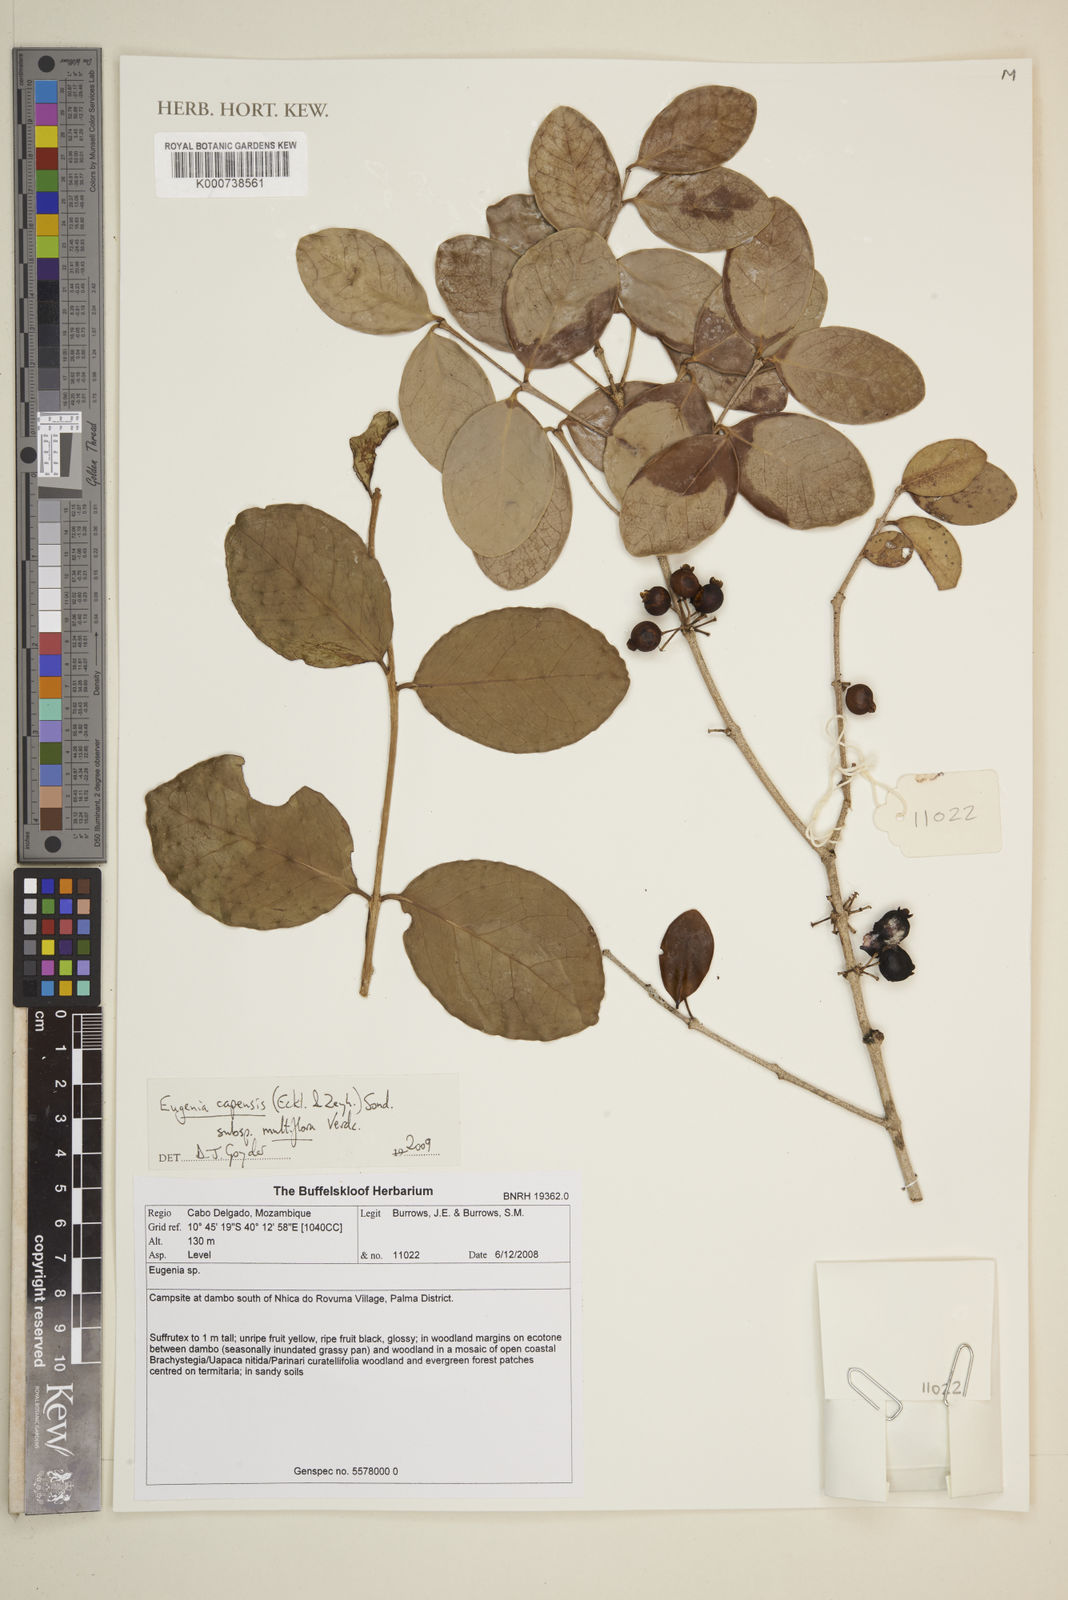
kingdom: Plantae
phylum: Tracheophyta
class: Magnoliopsida
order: Myrtales
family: Myrtaceae
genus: Eugenia
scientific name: Eugenia capensis
